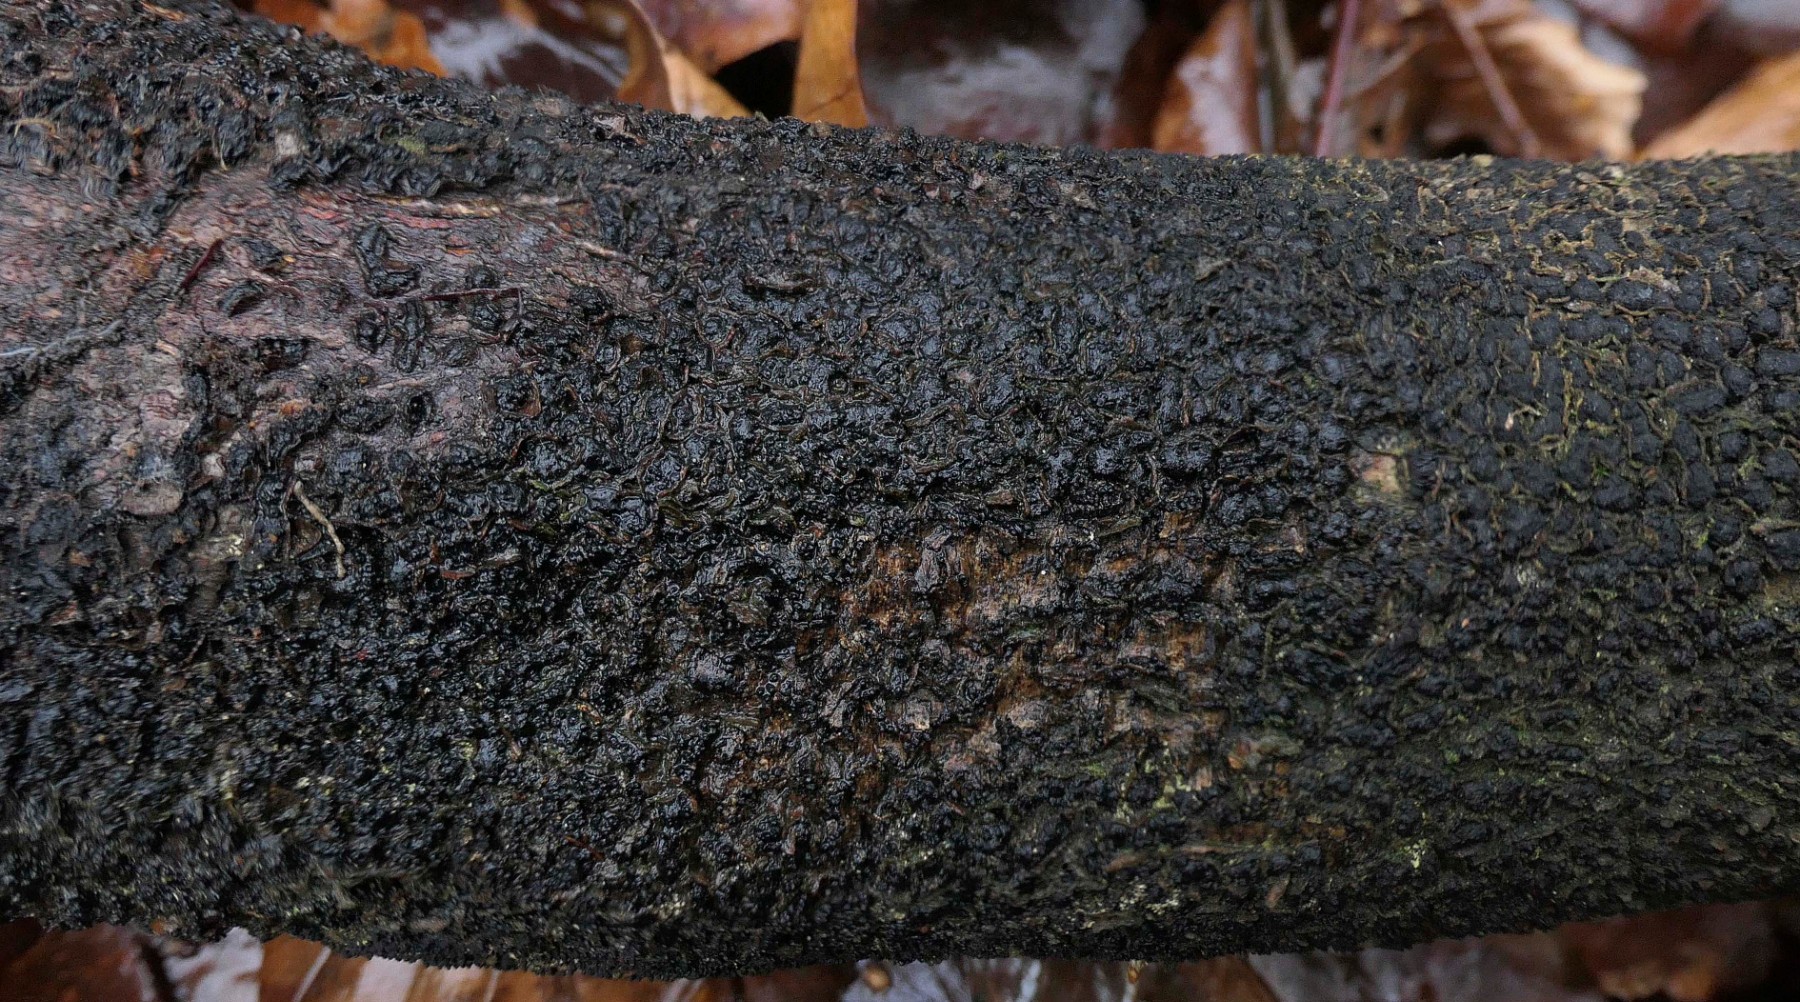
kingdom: Fungi
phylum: Ascomycota
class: Sordariomycetes
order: Xylariales
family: Melogrammataceae
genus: Melogramma
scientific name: Melogramma spiniferum
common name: bøgefod-kulhals
